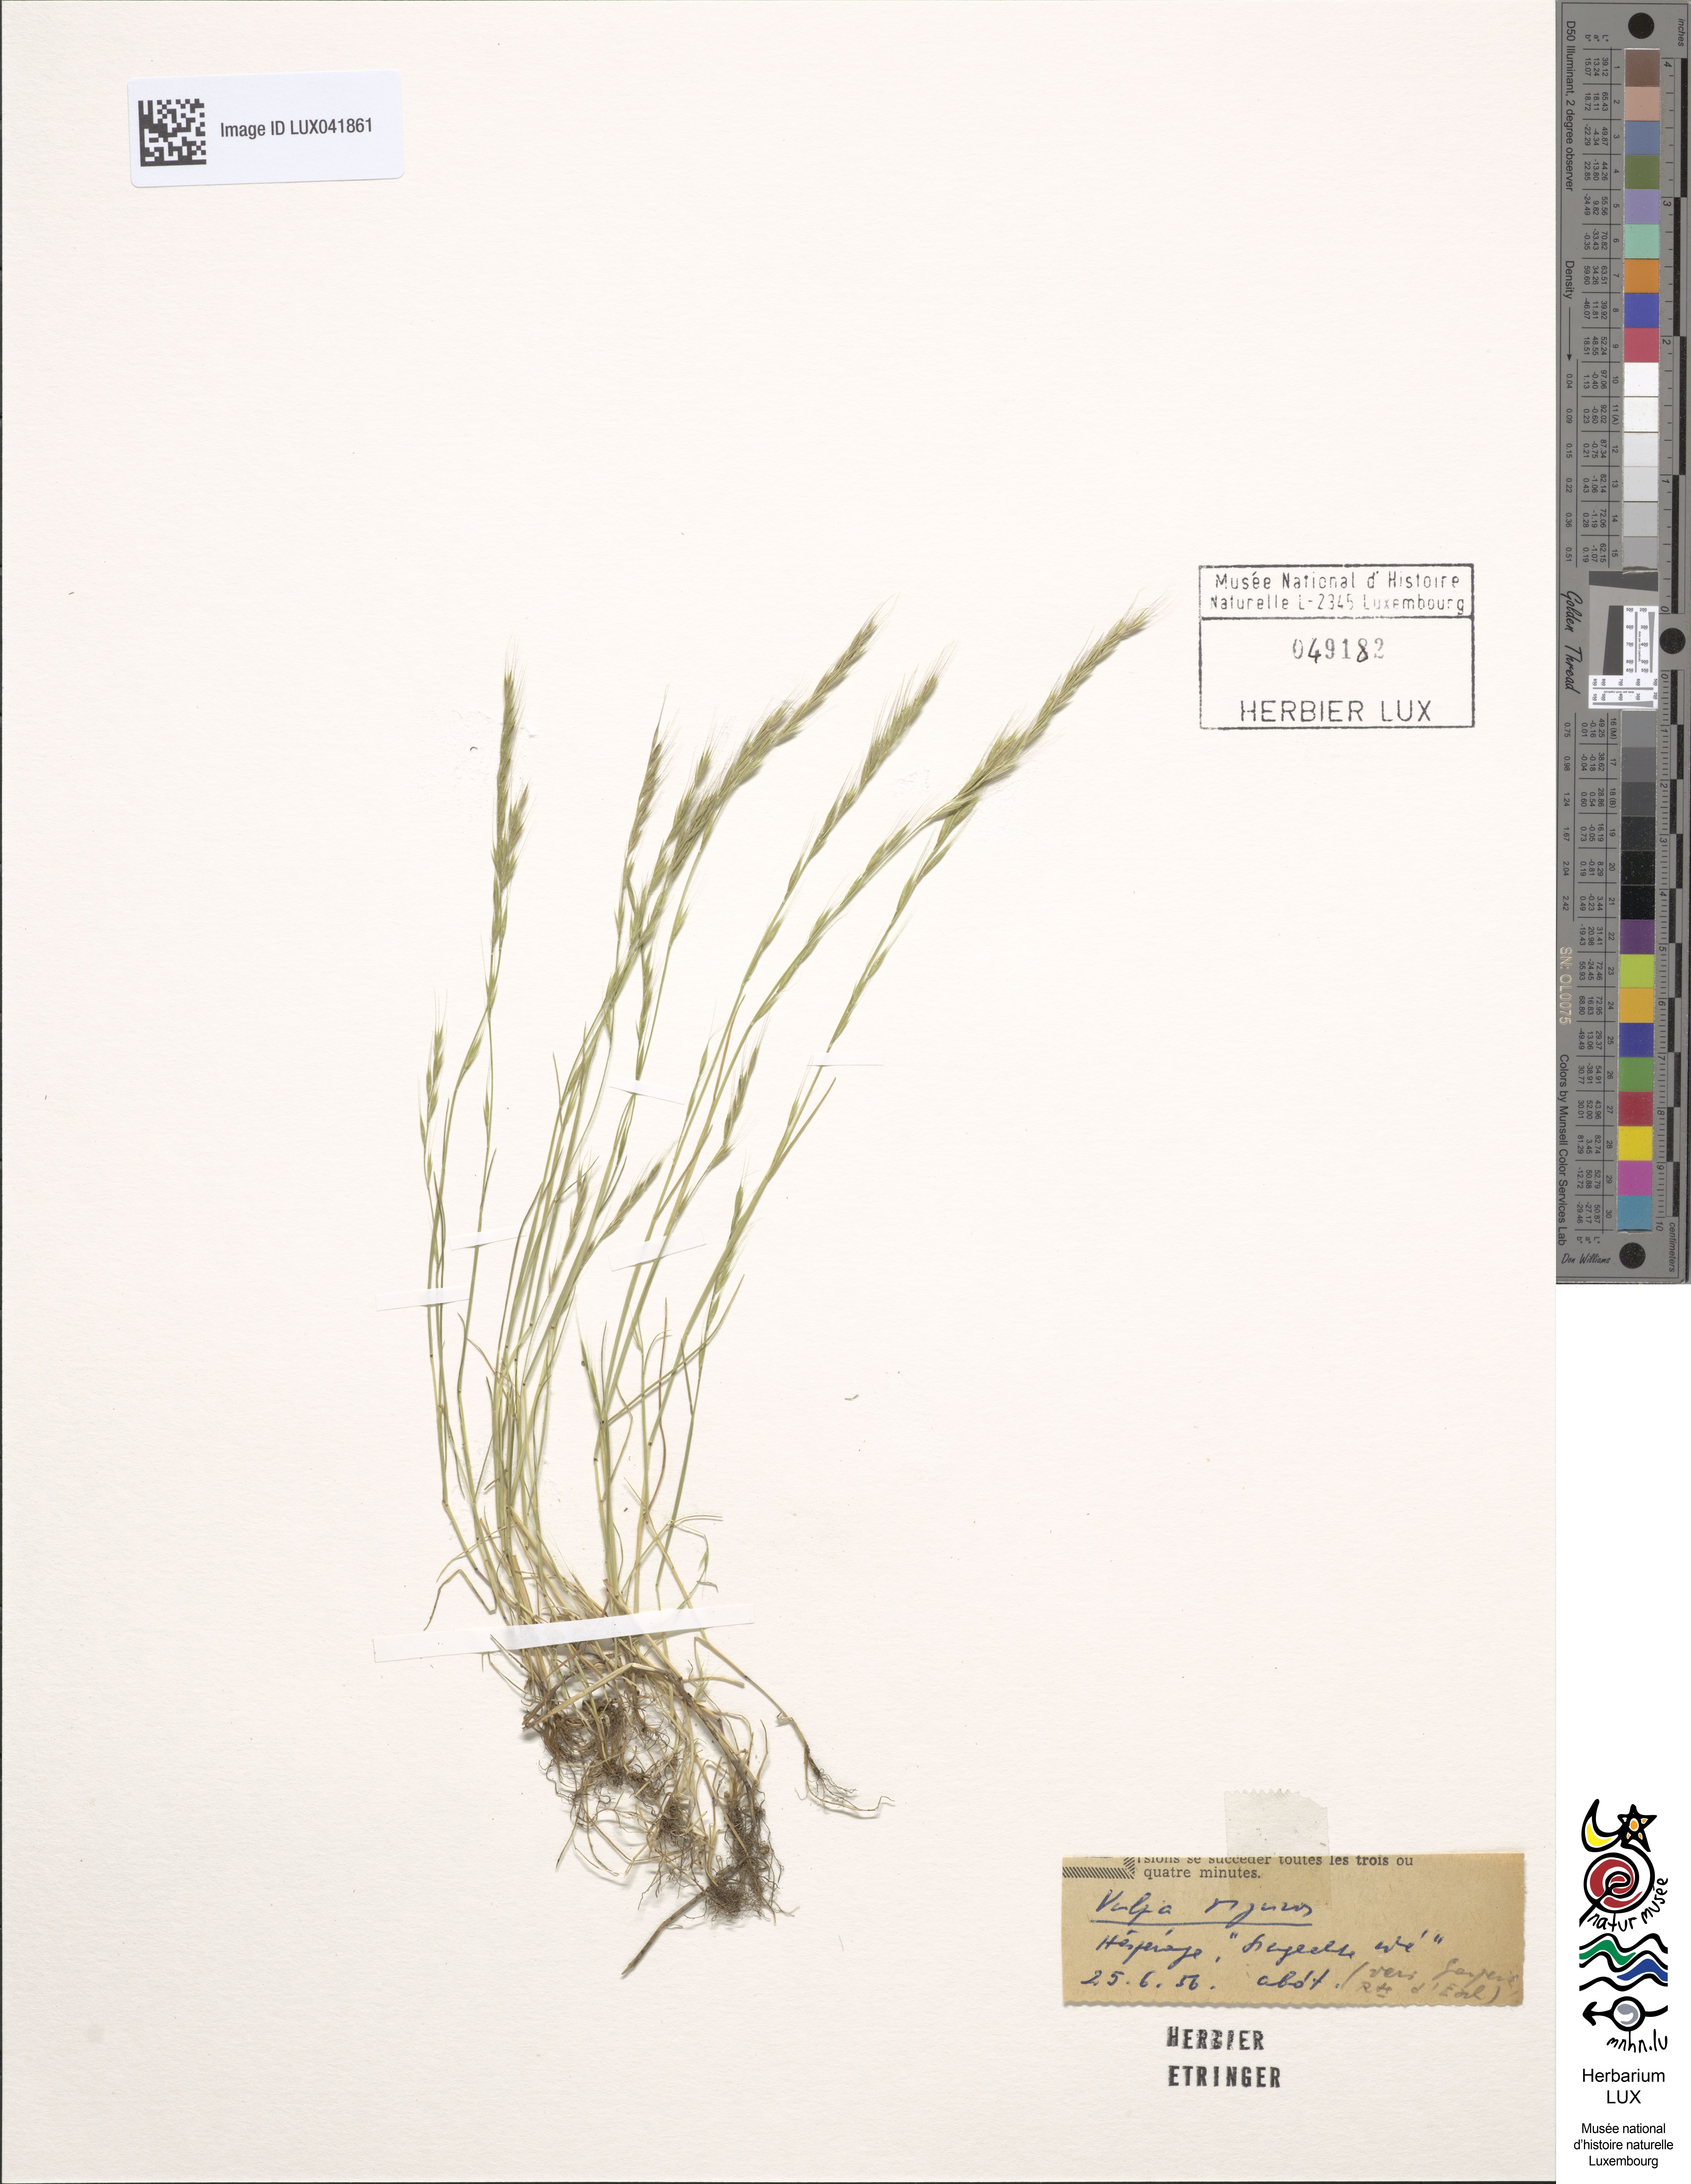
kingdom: Plantae
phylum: Tracheophyta
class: Liliopsida
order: Poales
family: Poaceae
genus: Festuca
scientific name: Festuca myuros
